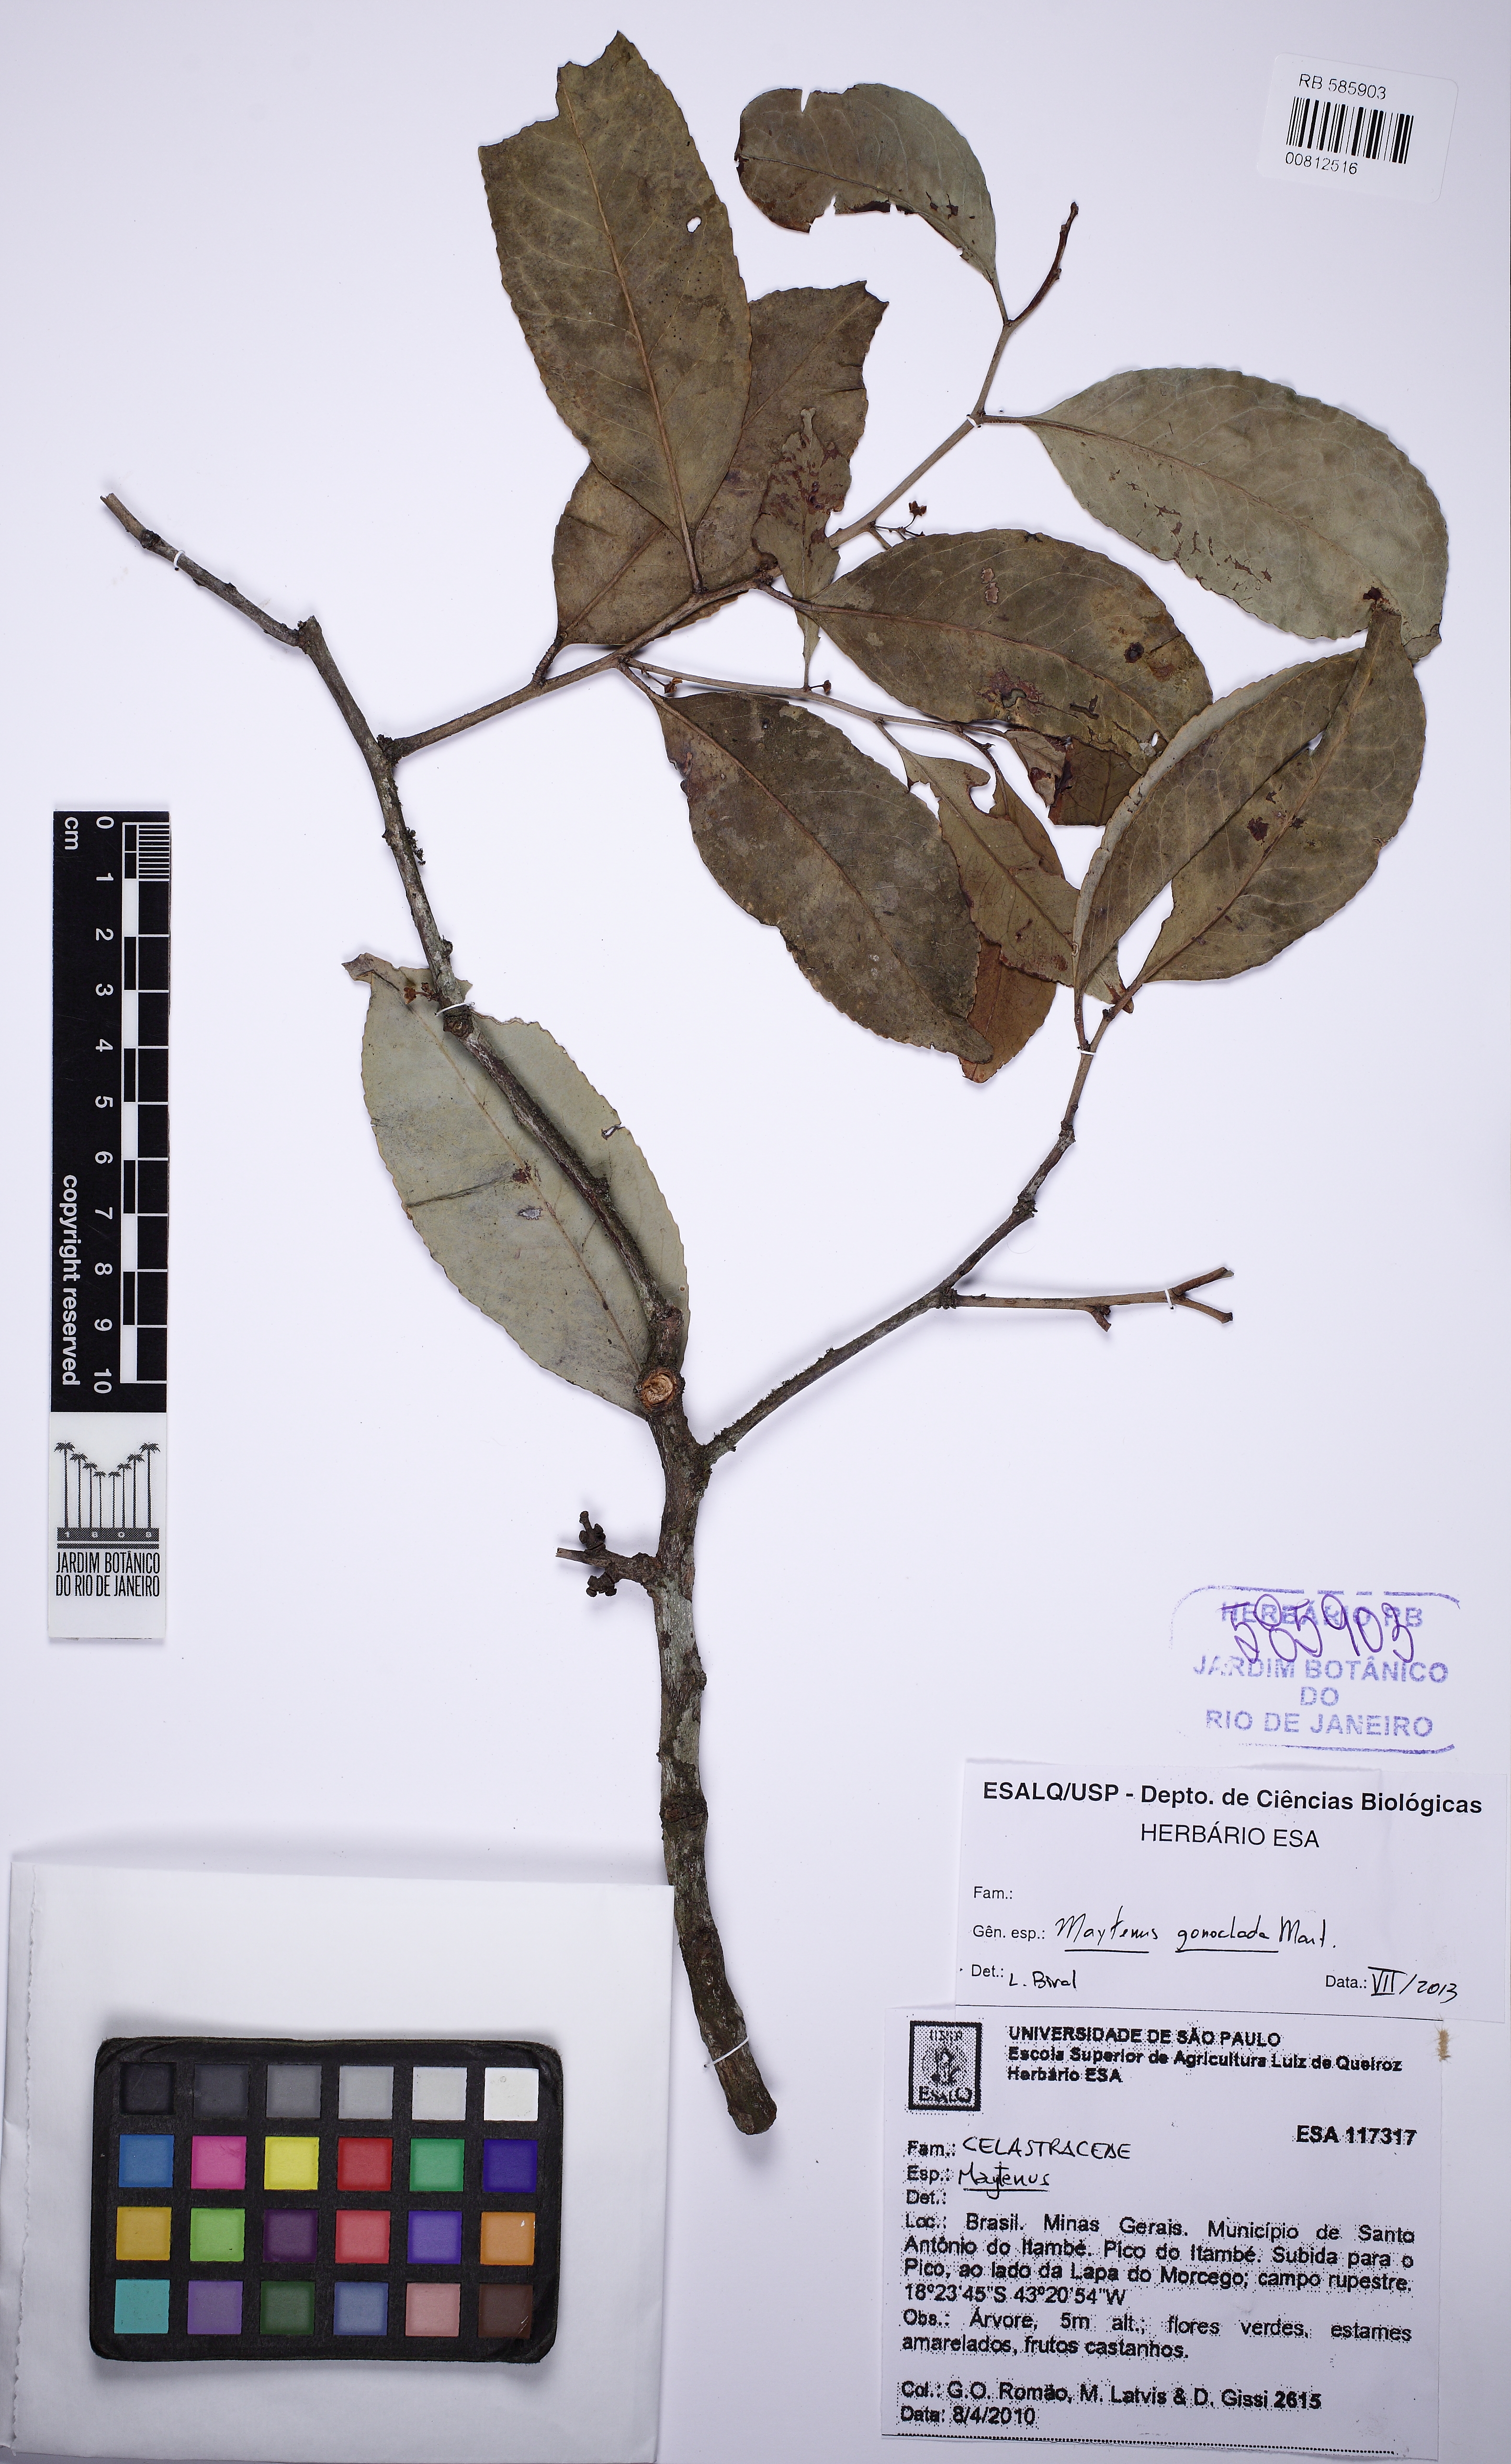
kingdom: Plantae
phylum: Tracheophyta
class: Magnoliopsida
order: Celastrales
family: Celastraceae
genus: Monteverdia
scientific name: Monteverdia gonoclada
